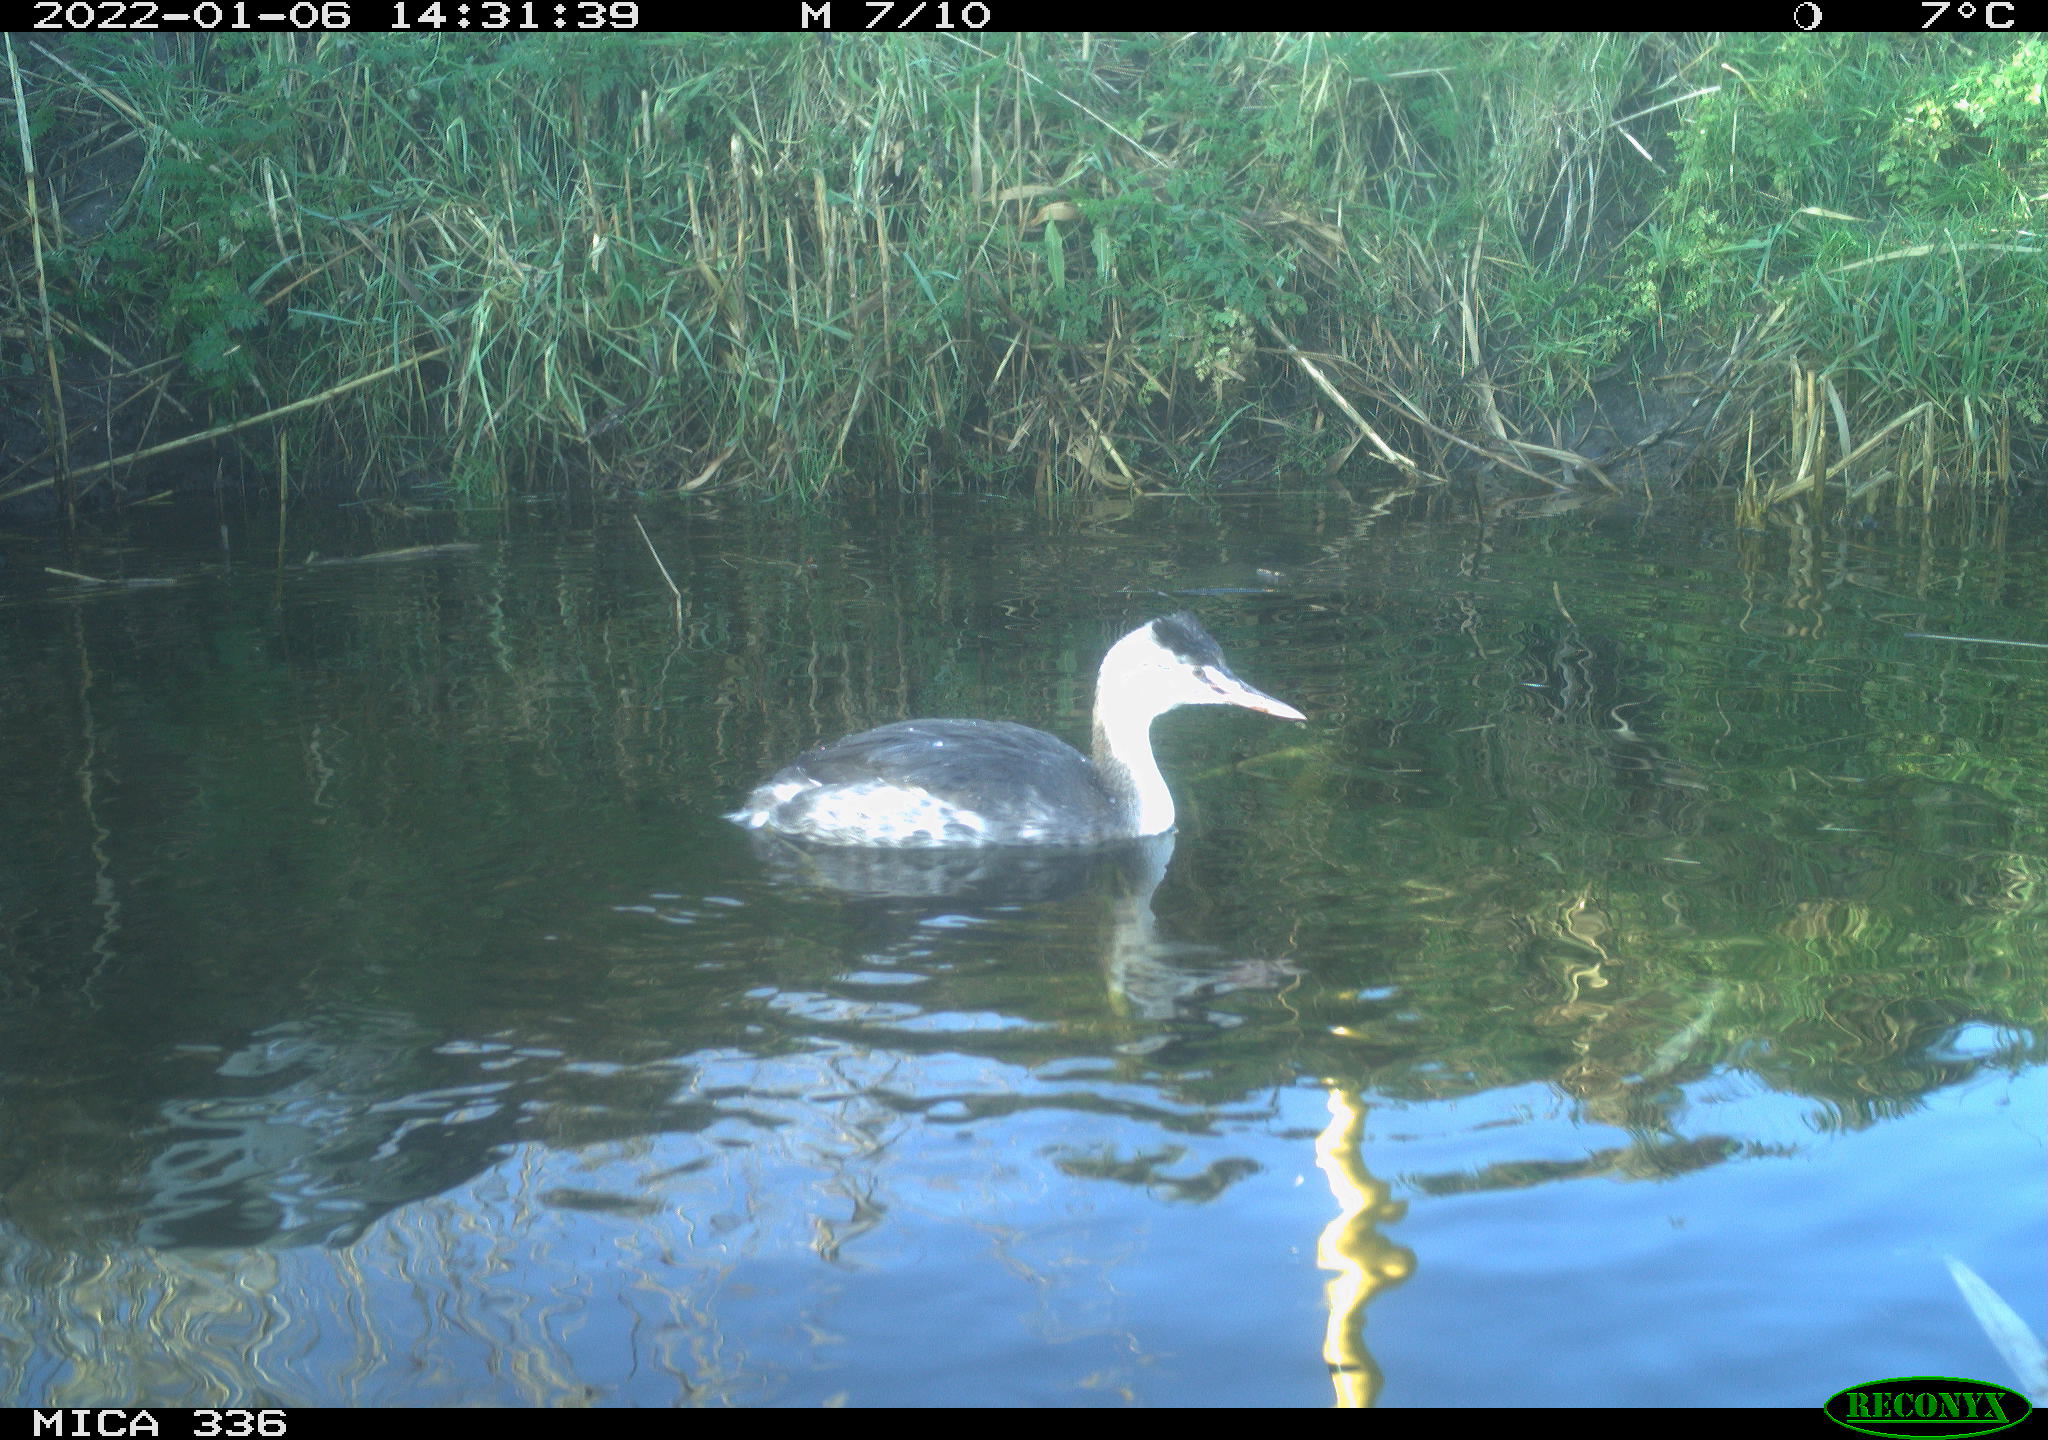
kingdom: Animalia
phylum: Chordata
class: Aves
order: Podicipediformes
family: Podicipedidae
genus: Podiceps
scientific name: Podiceps cristatus
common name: Great crested grebe
